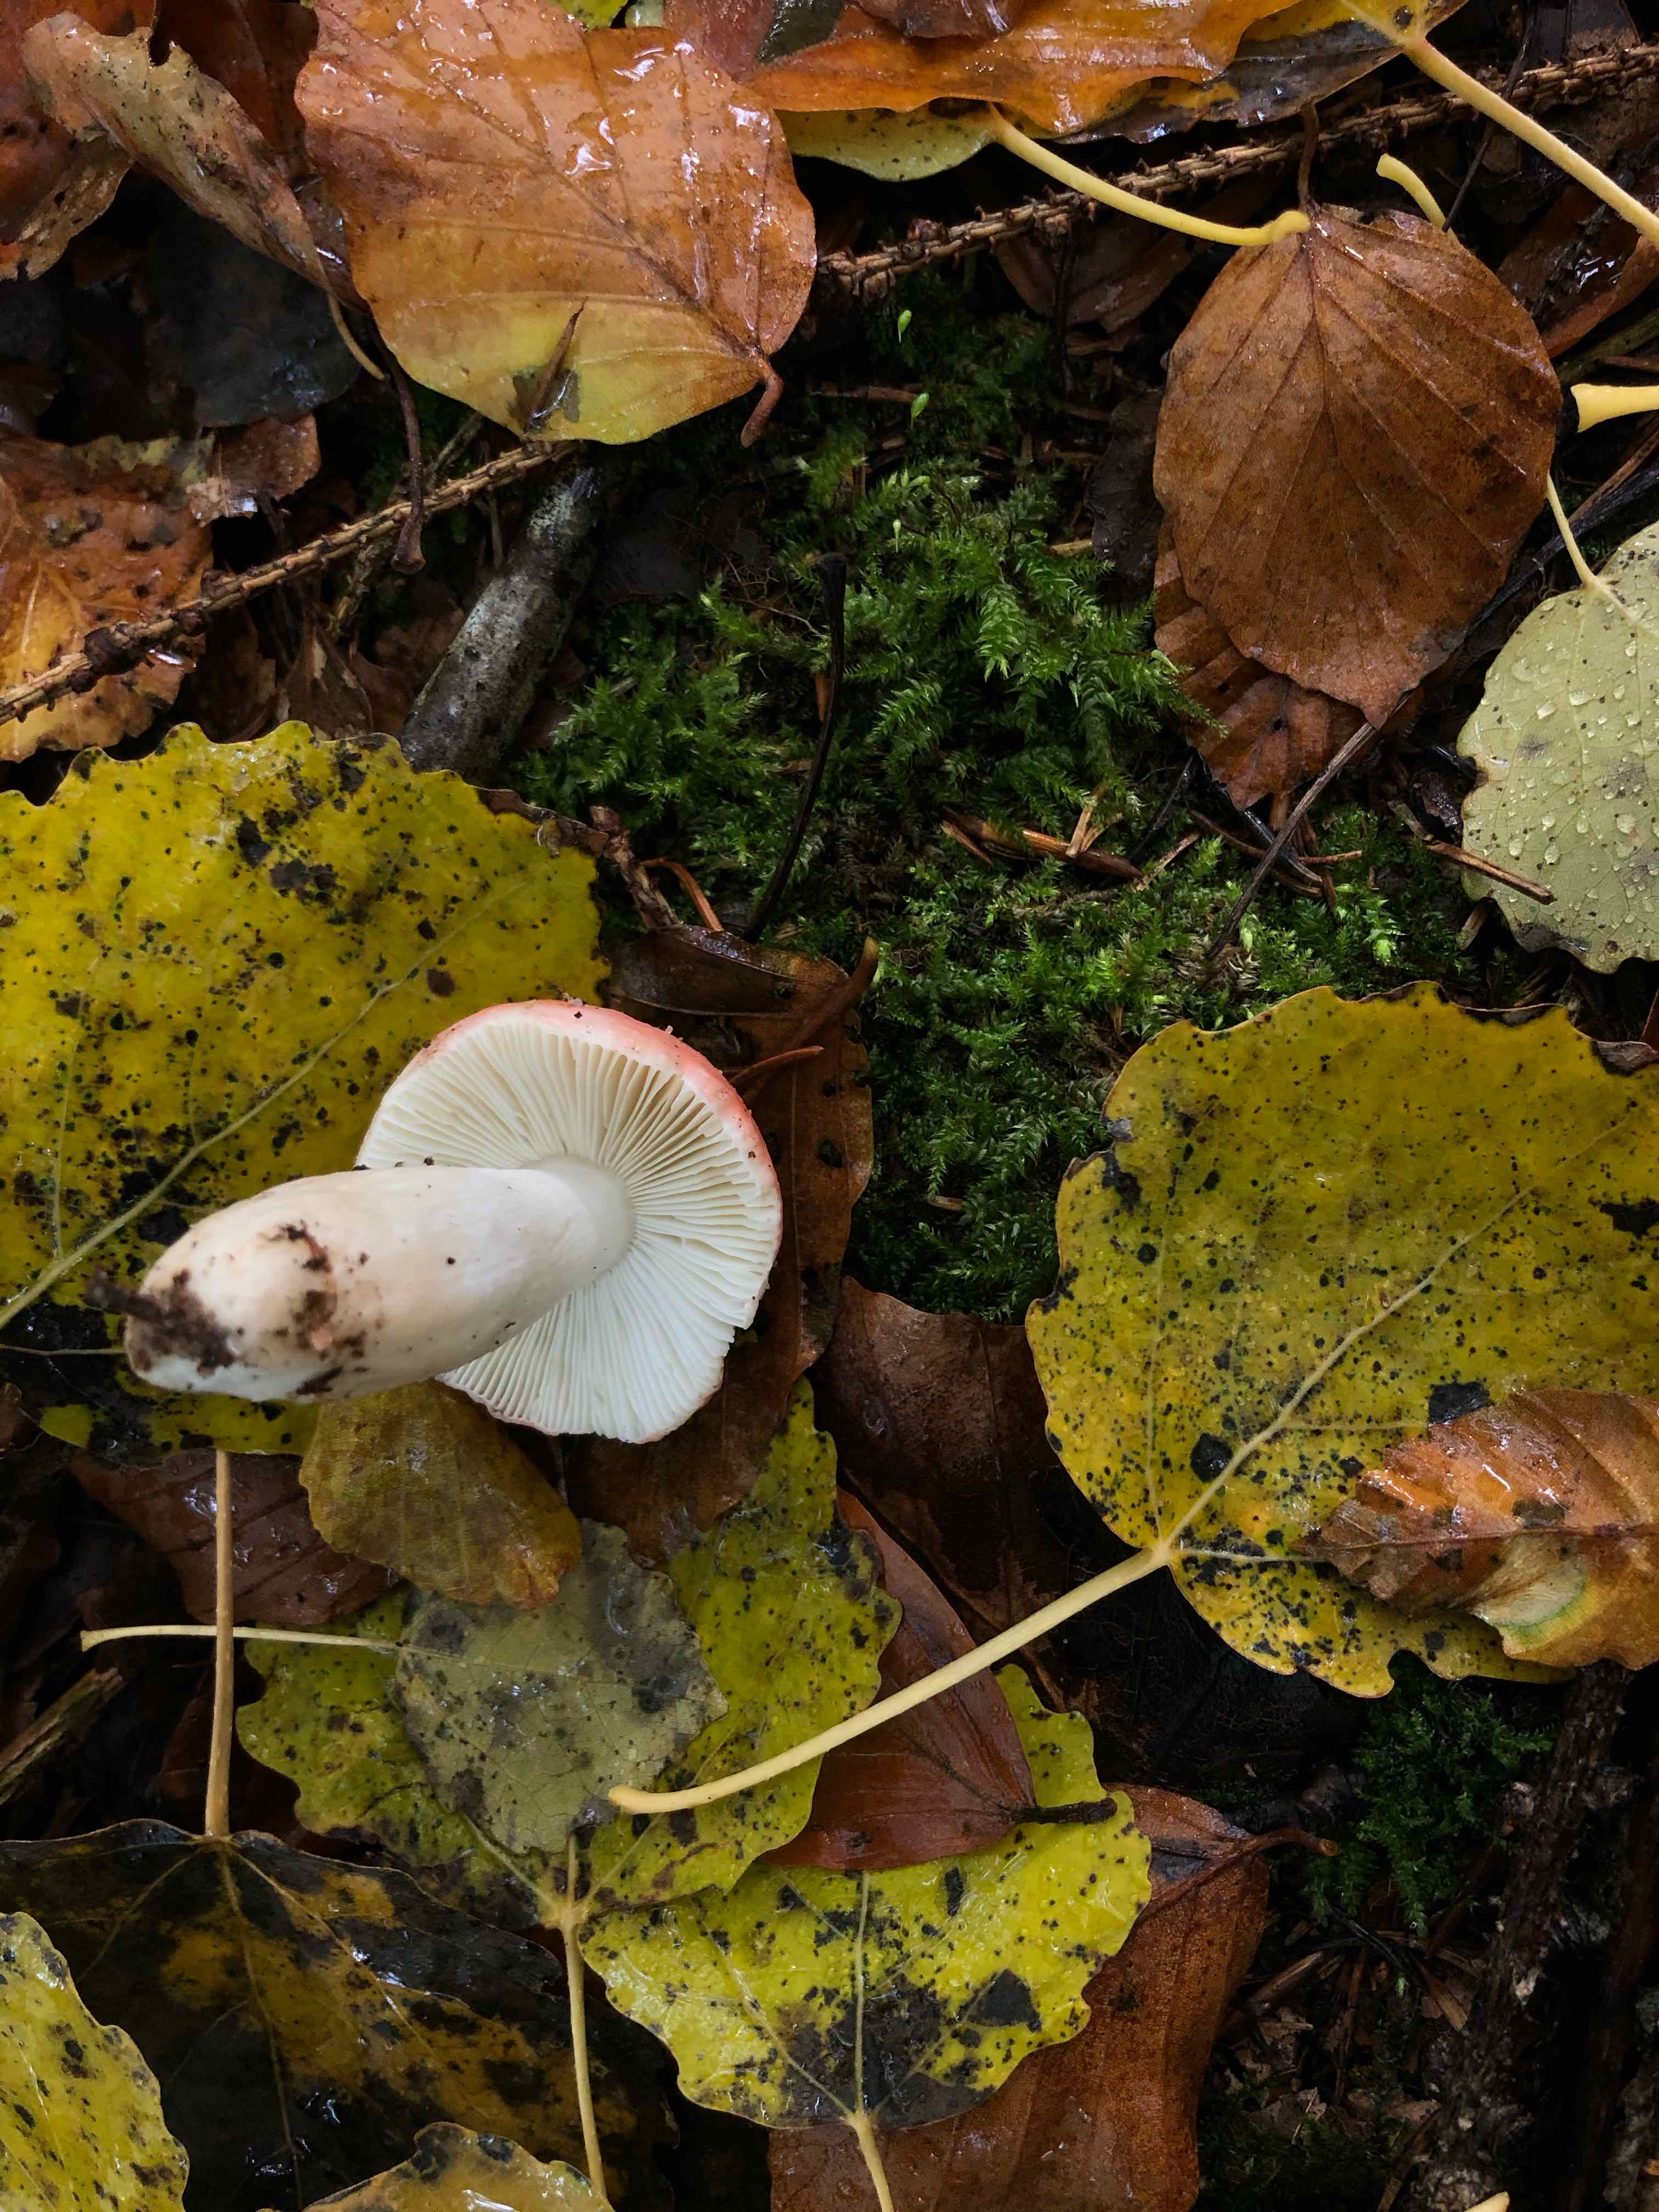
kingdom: Fungi
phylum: Basidiomycota
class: Agaricomycetes
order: Russulales
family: Russulaceae
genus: Russula
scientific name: Russula
